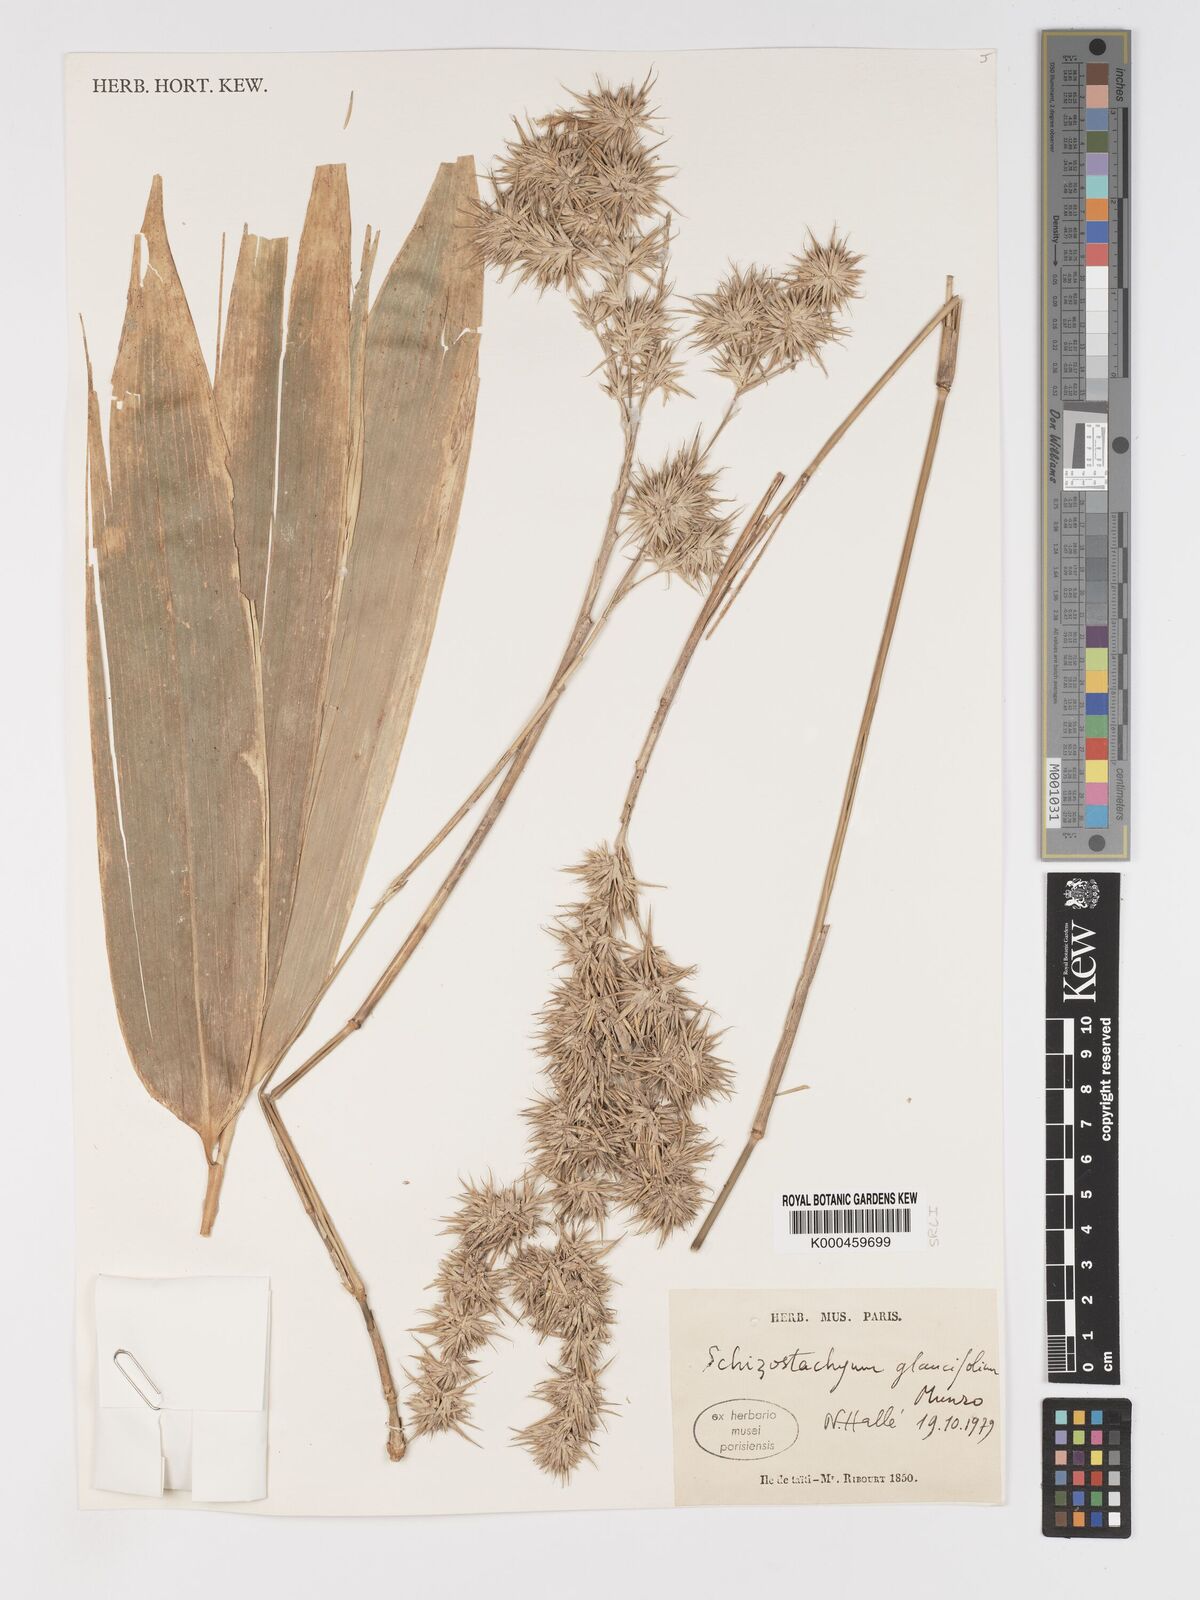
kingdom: Plantae
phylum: Tracheophyta
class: Liliopsida
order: Poales
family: Poaceae
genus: Schizostachyum
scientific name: Schizostachyum glaucifolium
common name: Polynesian 'ohe
